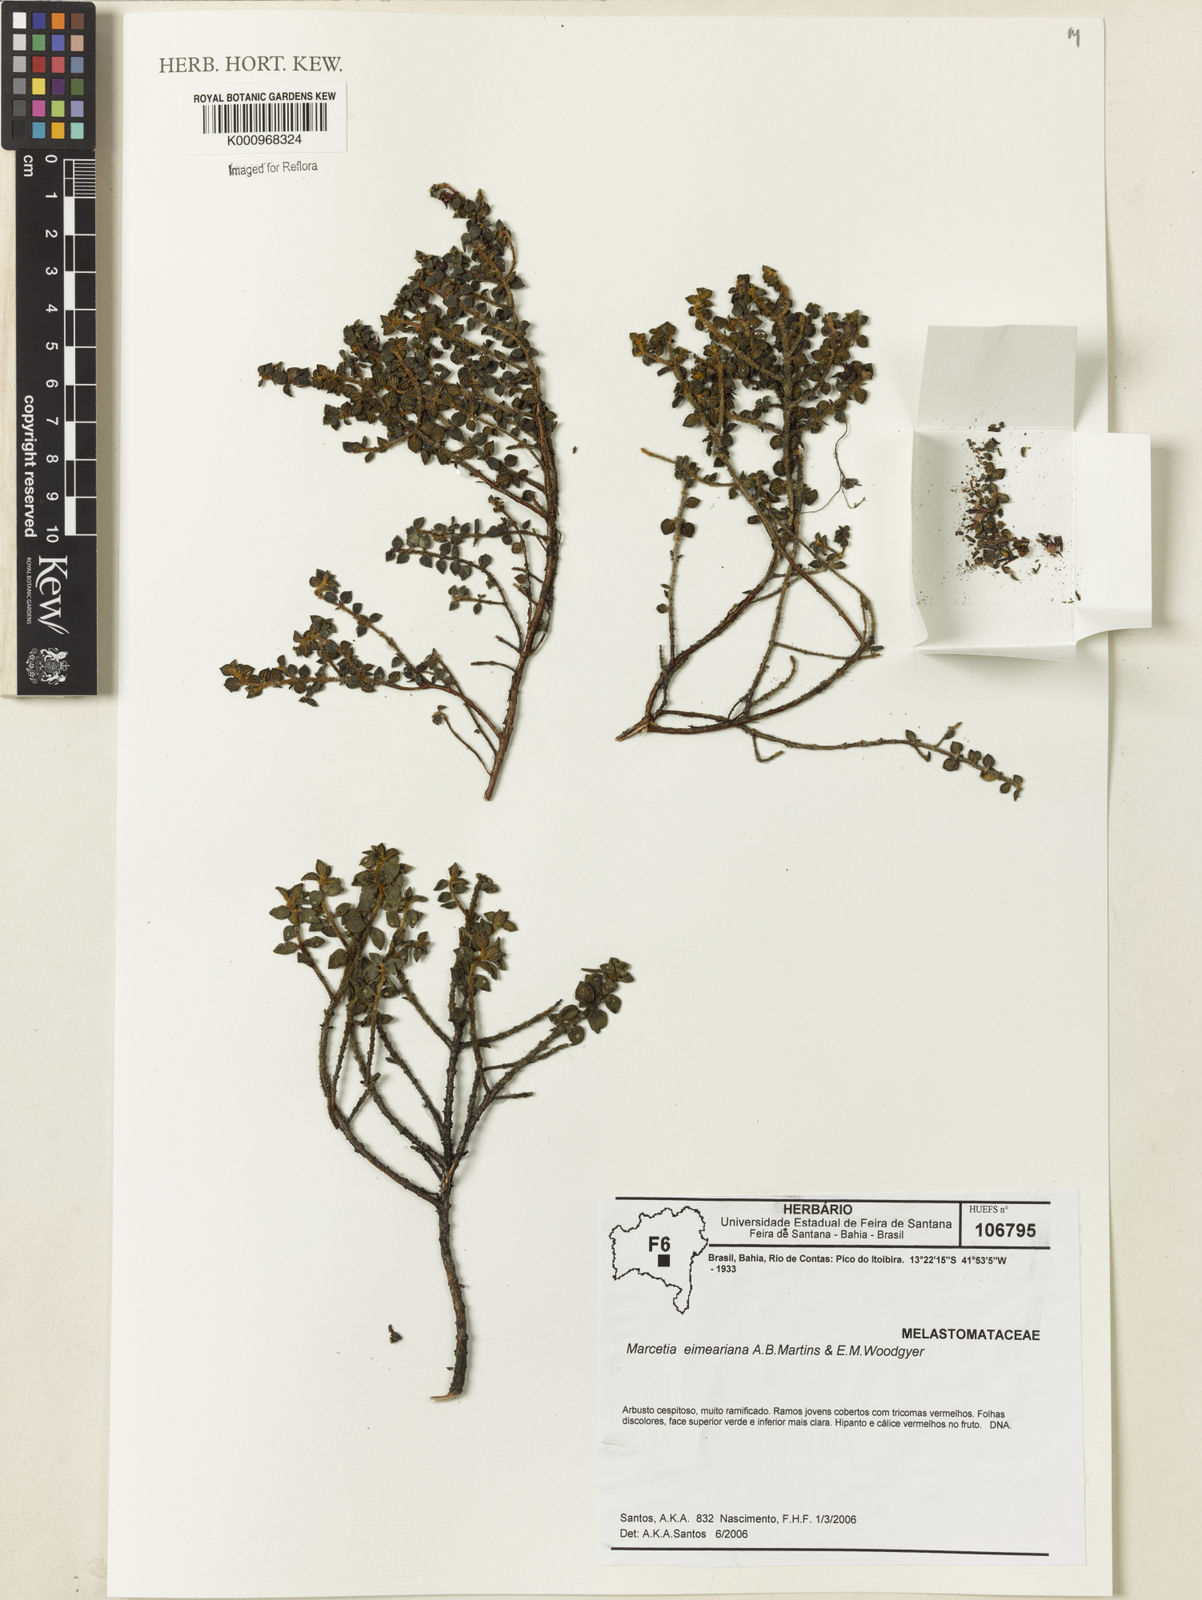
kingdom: Plantae
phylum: Tracheophyta
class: Magnoliopsida
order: Myrtales
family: Melastomataceae
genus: Marcetia
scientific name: Marcetia eimeariana
